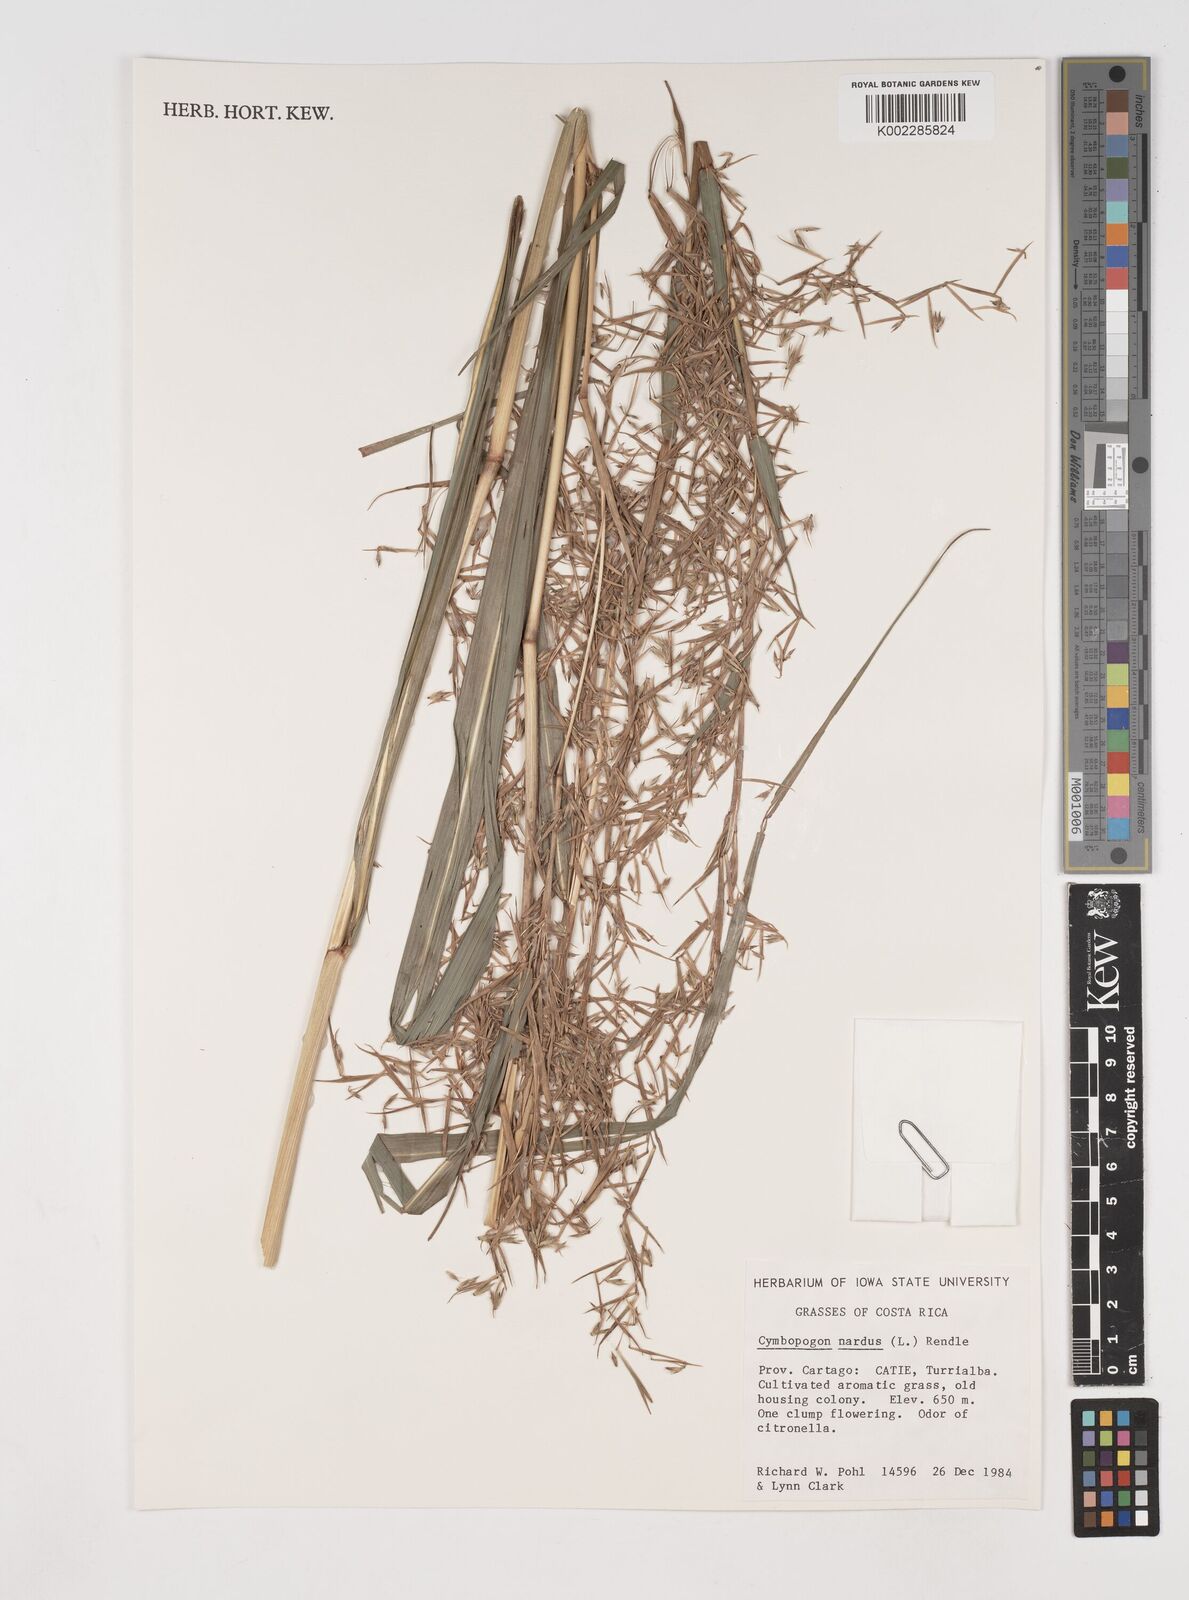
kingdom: Plantae
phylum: Tracheophyta
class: Liliopsida
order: Poales
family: Poaceae
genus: Cymbopogon
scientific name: Cymbopogon nardus
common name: Giant turpentine grass
